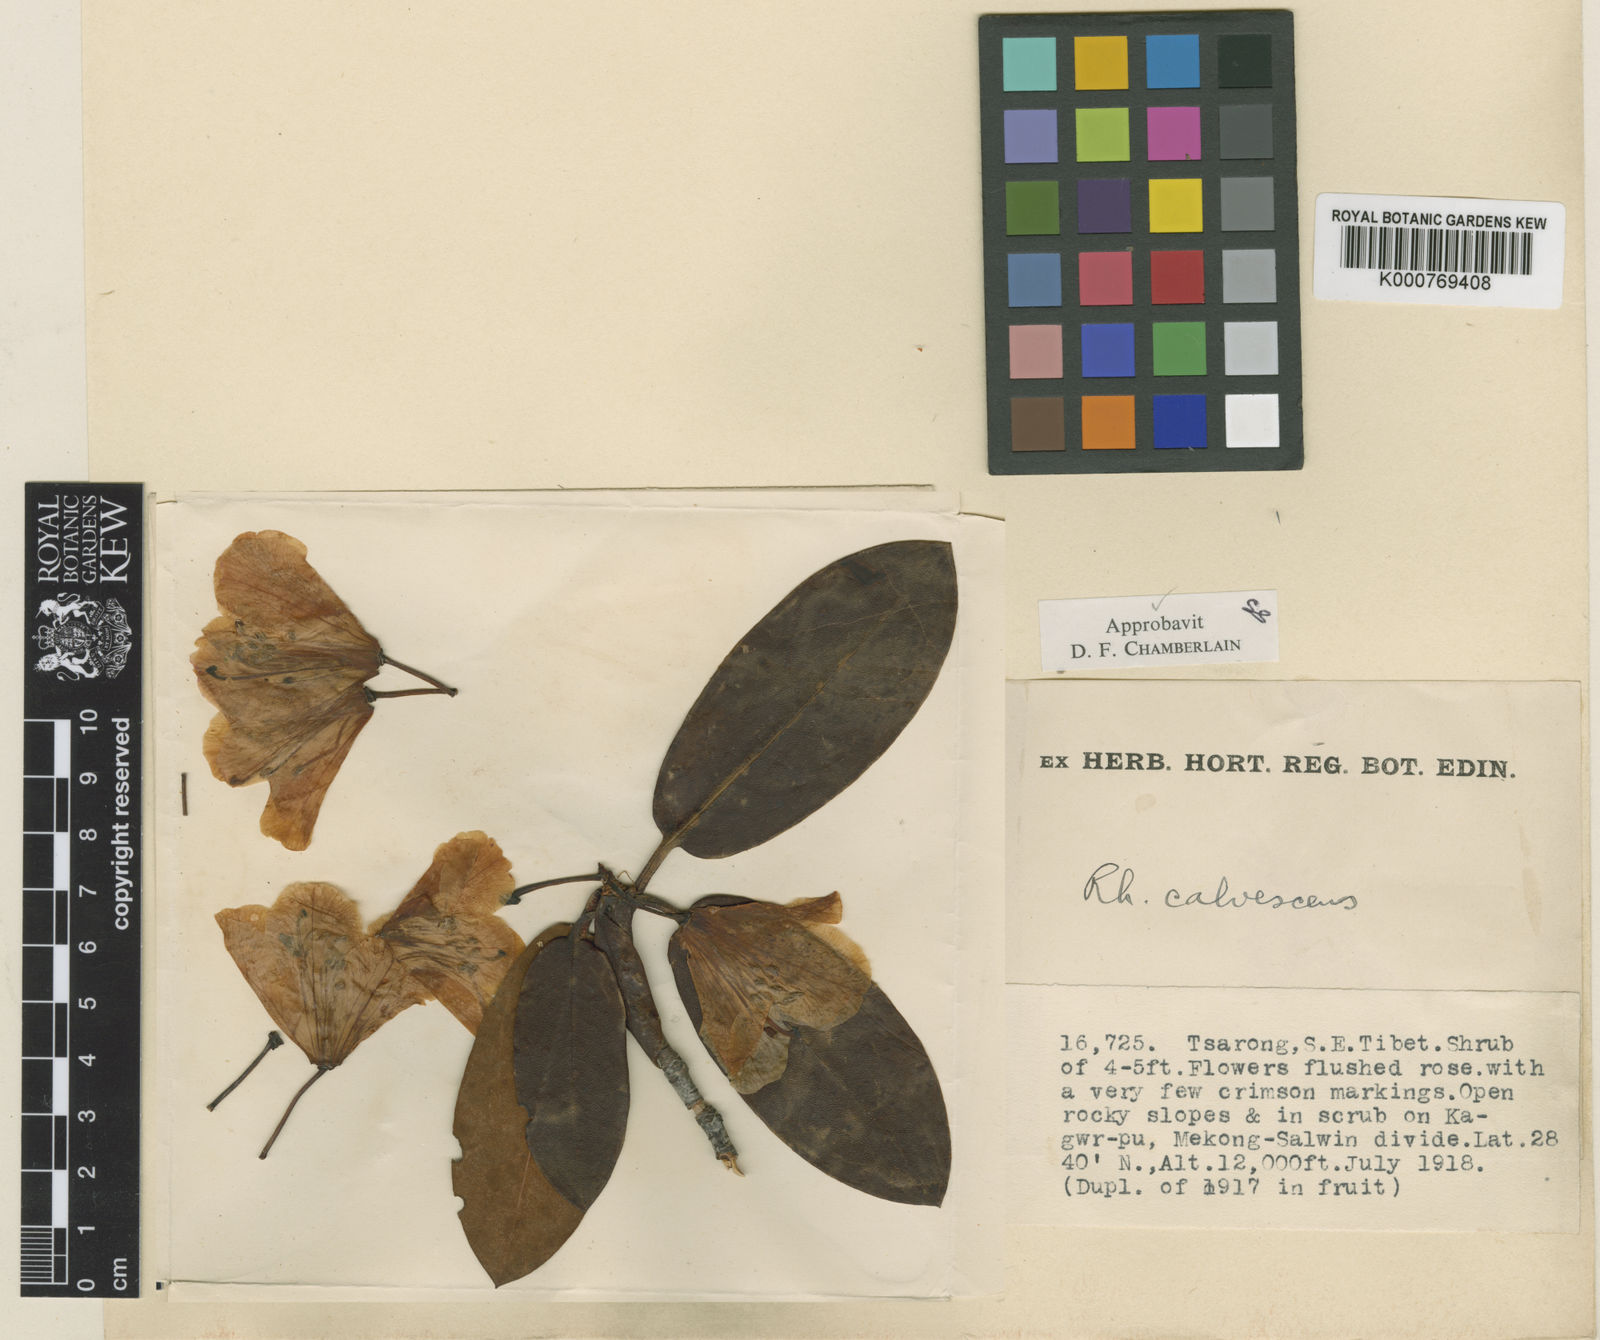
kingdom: Plantae
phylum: Tracheophyta
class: Magnoliopsida
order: Ericales
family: Ericaceae
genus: Rhododendron
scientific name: Rhododendron calvescens
